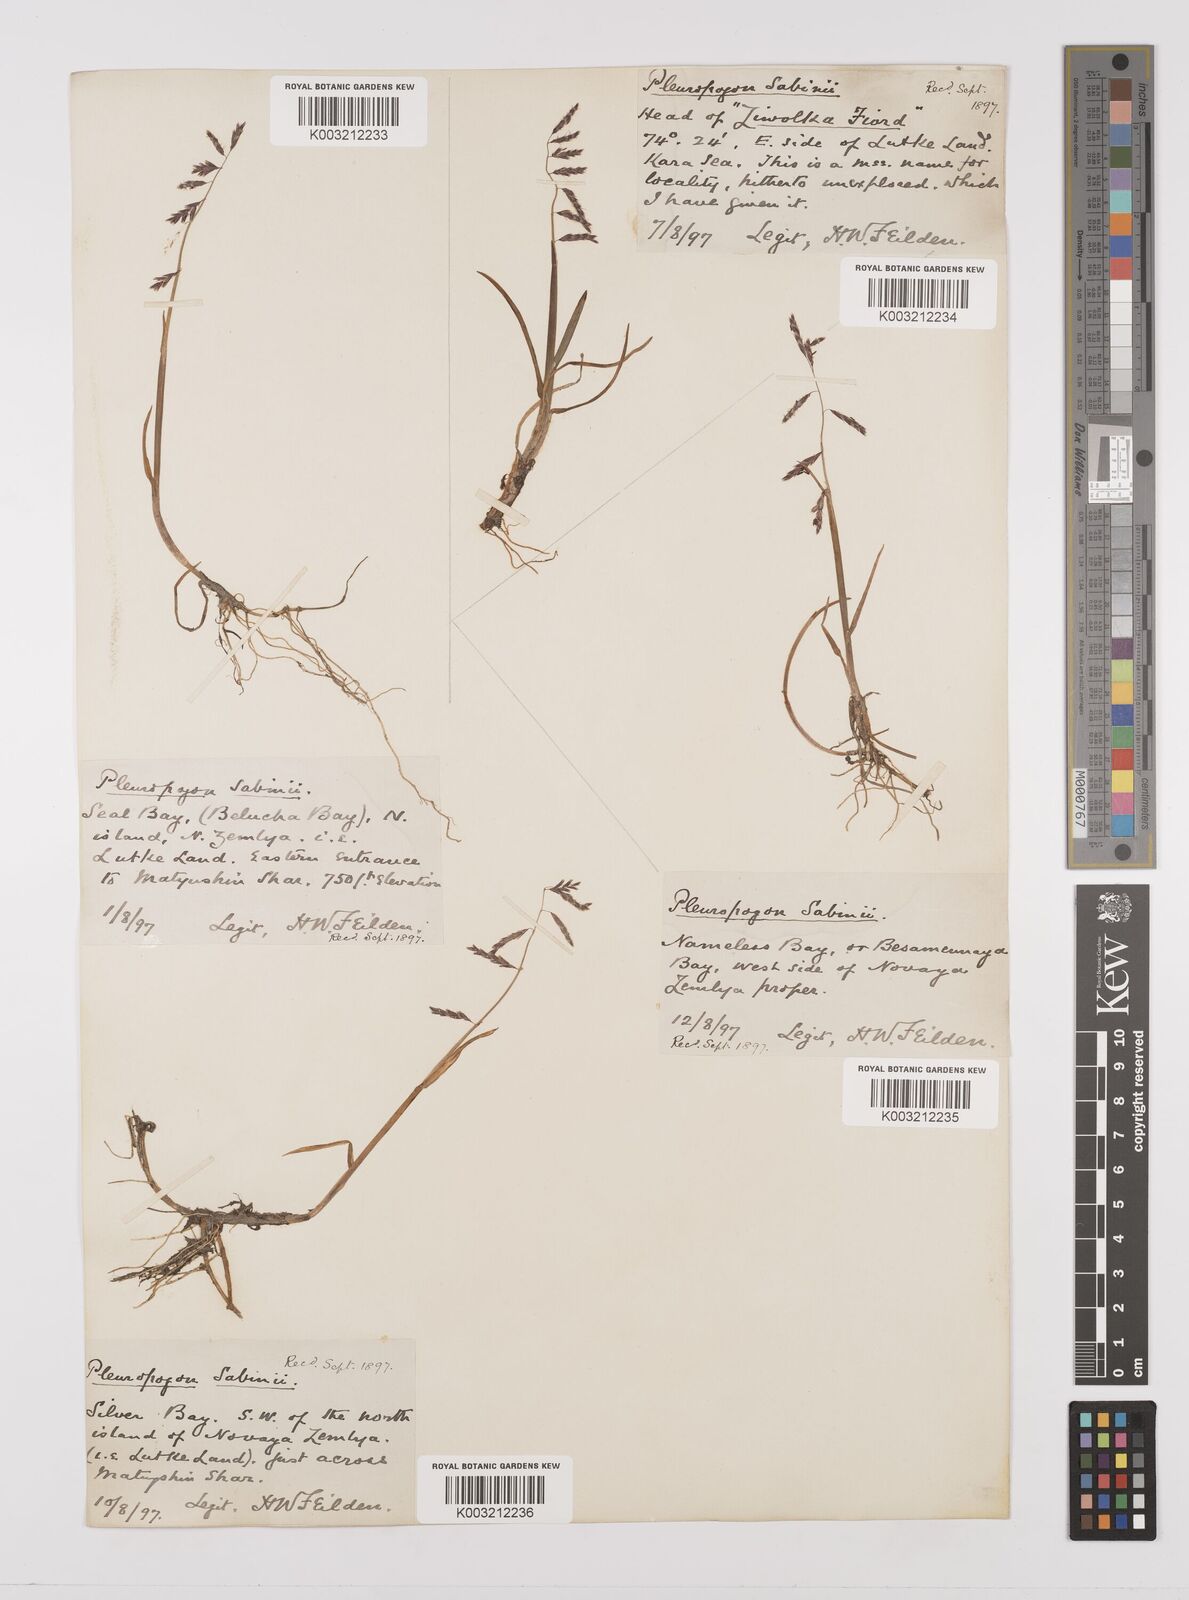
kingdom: Plantae
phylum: Tracheophyta
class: Liliopsida
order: Poales
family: Poaceae
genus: Pleuropogon
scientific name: Pleuropogon sabinei
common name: Sabine's false semaphoregrass
